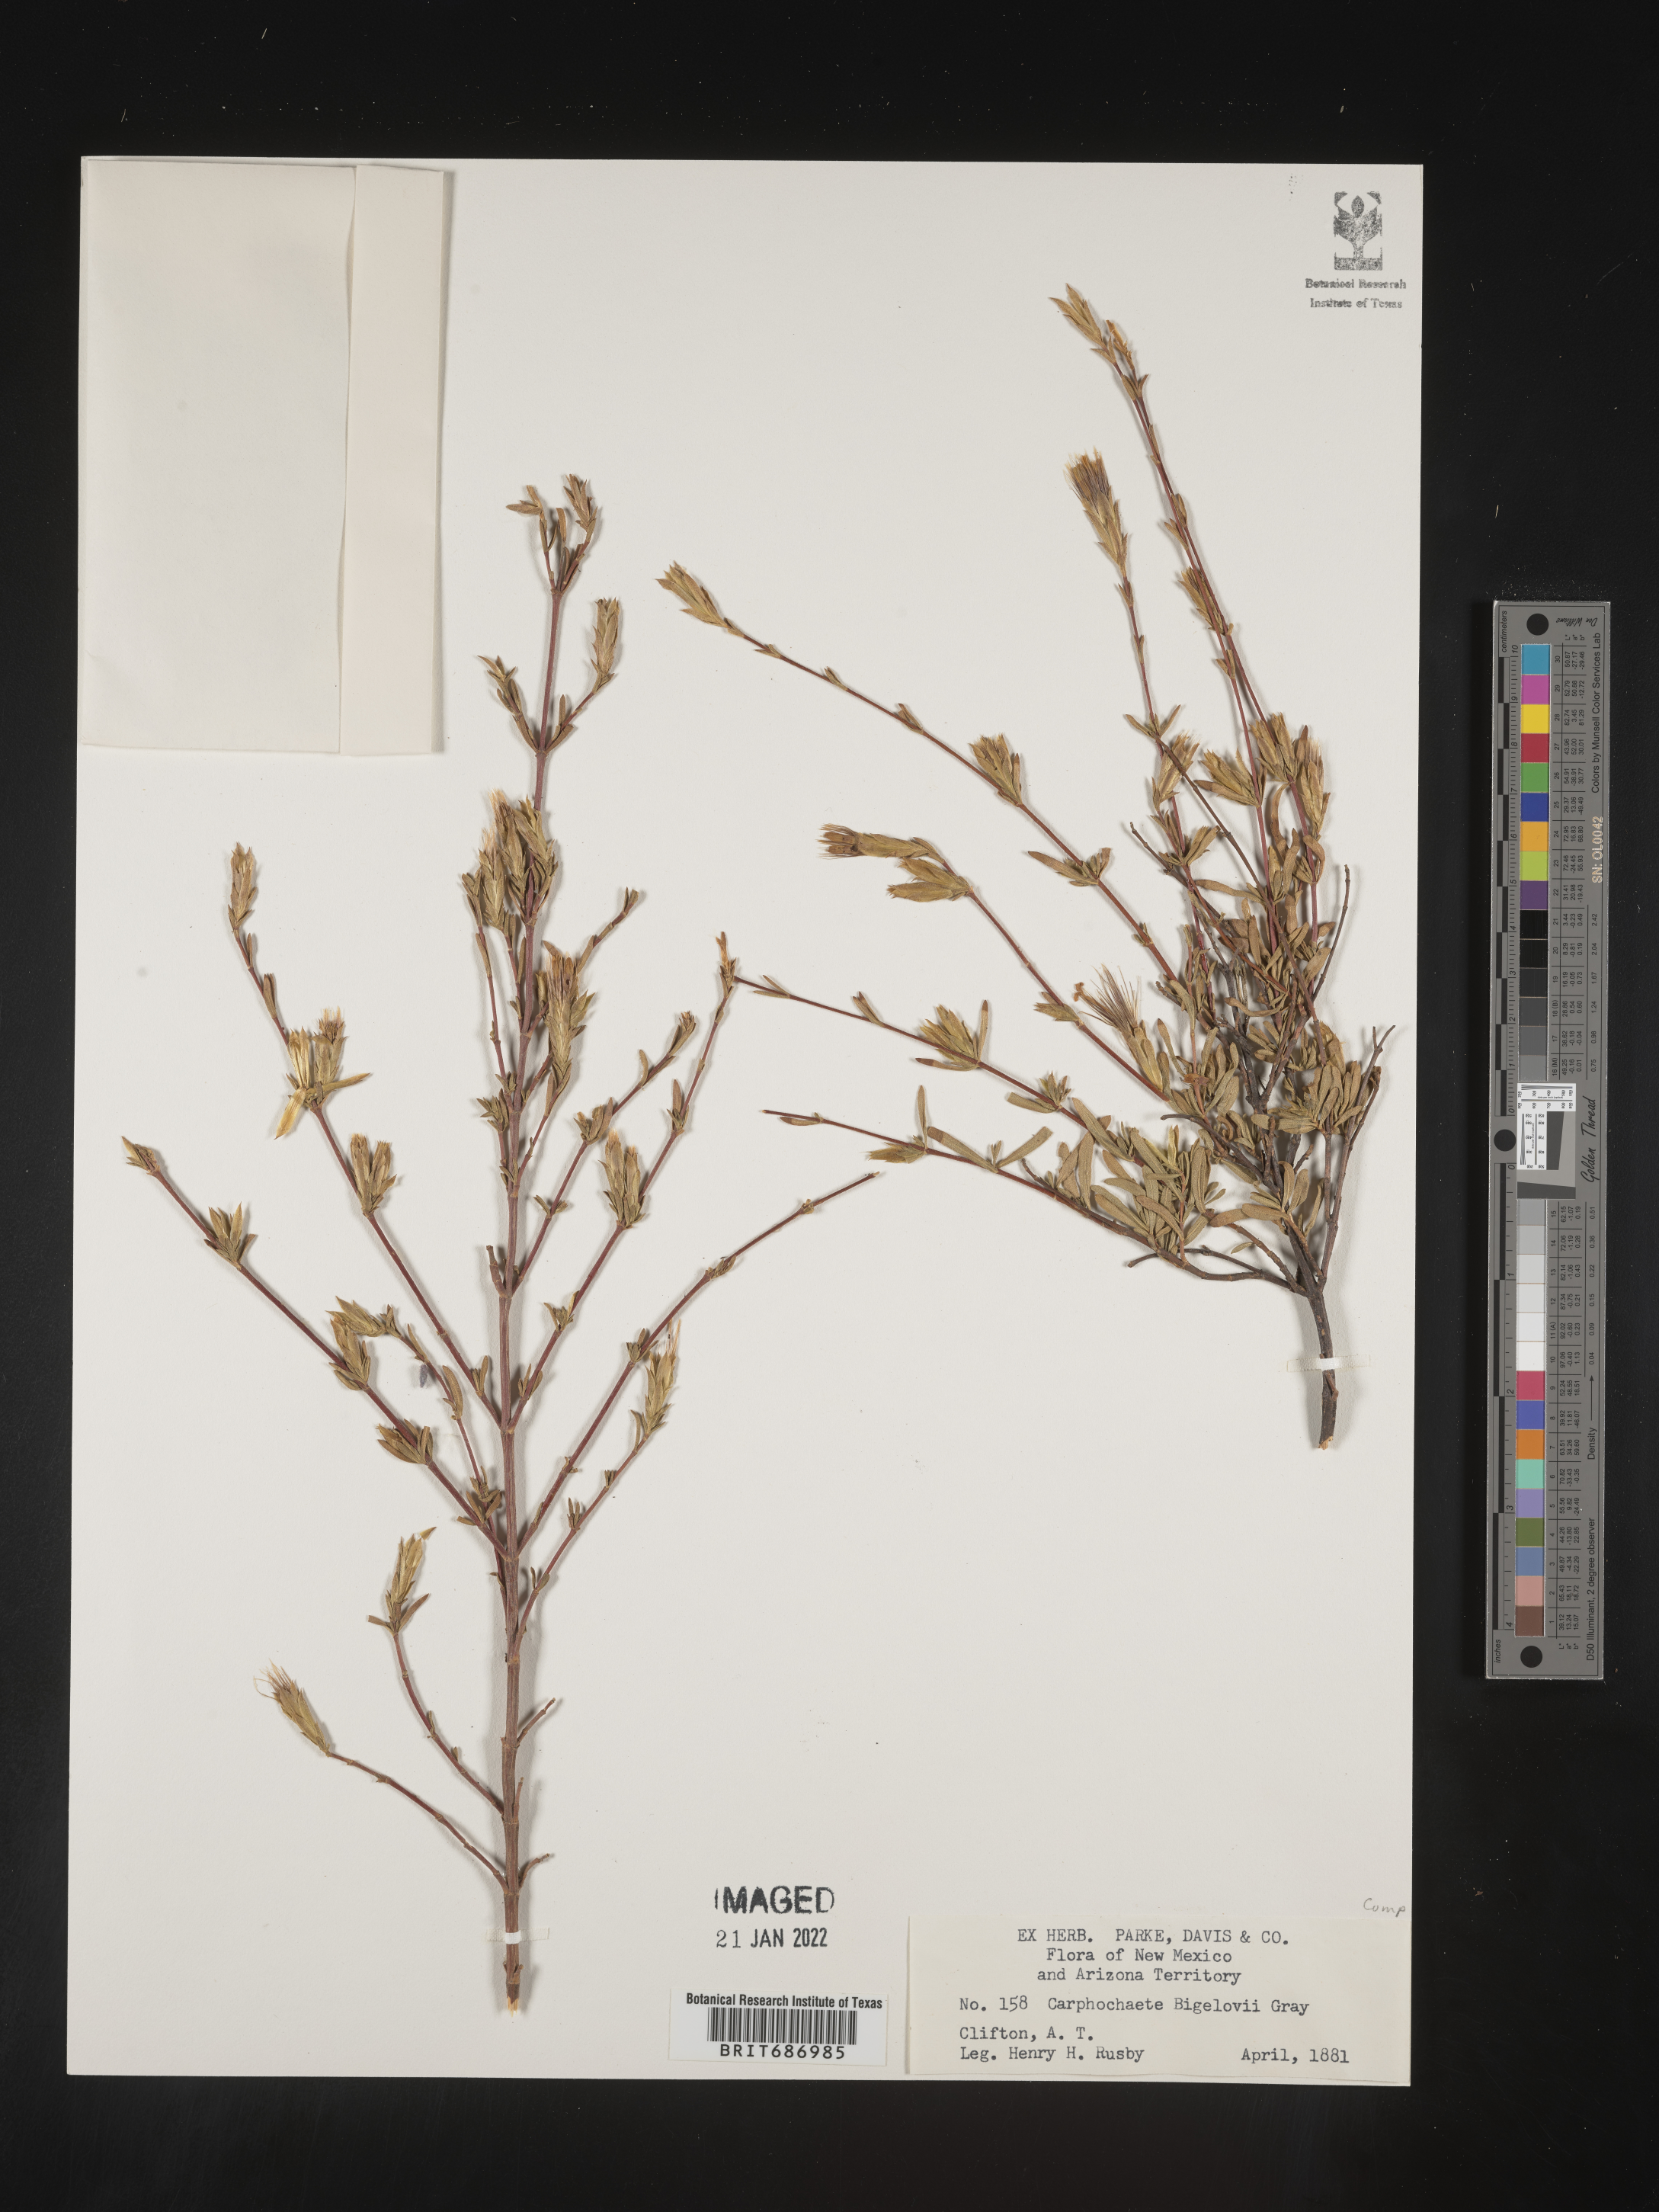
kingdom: Plantae
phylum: Tracheophyta
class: Magnoliopsida
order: Asterales
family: Asteraceae
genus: Carphochaete
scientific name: Carphochaete
